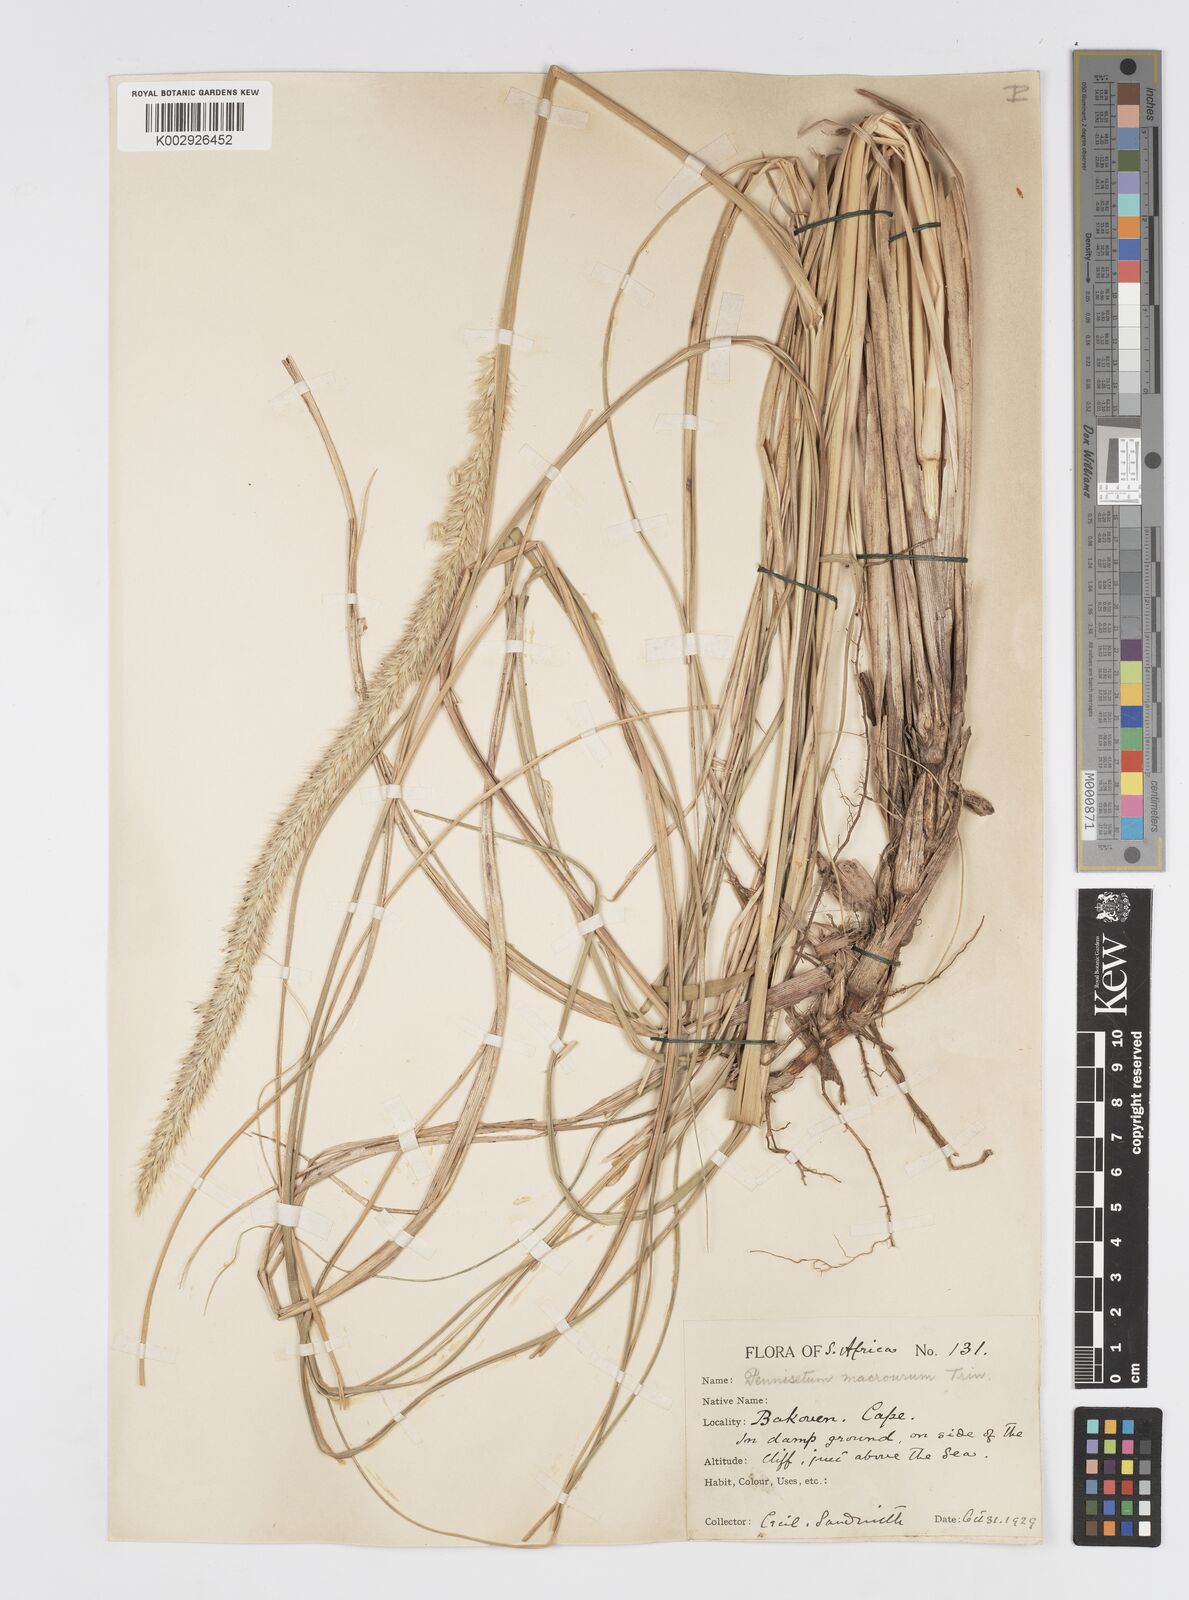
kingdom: Plantae
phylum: Tracheophyta
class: Liliopsida
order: Poales
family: Poaceae
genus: Cenchrus
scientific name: Cenchrus purpureus
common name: Elephant grass
